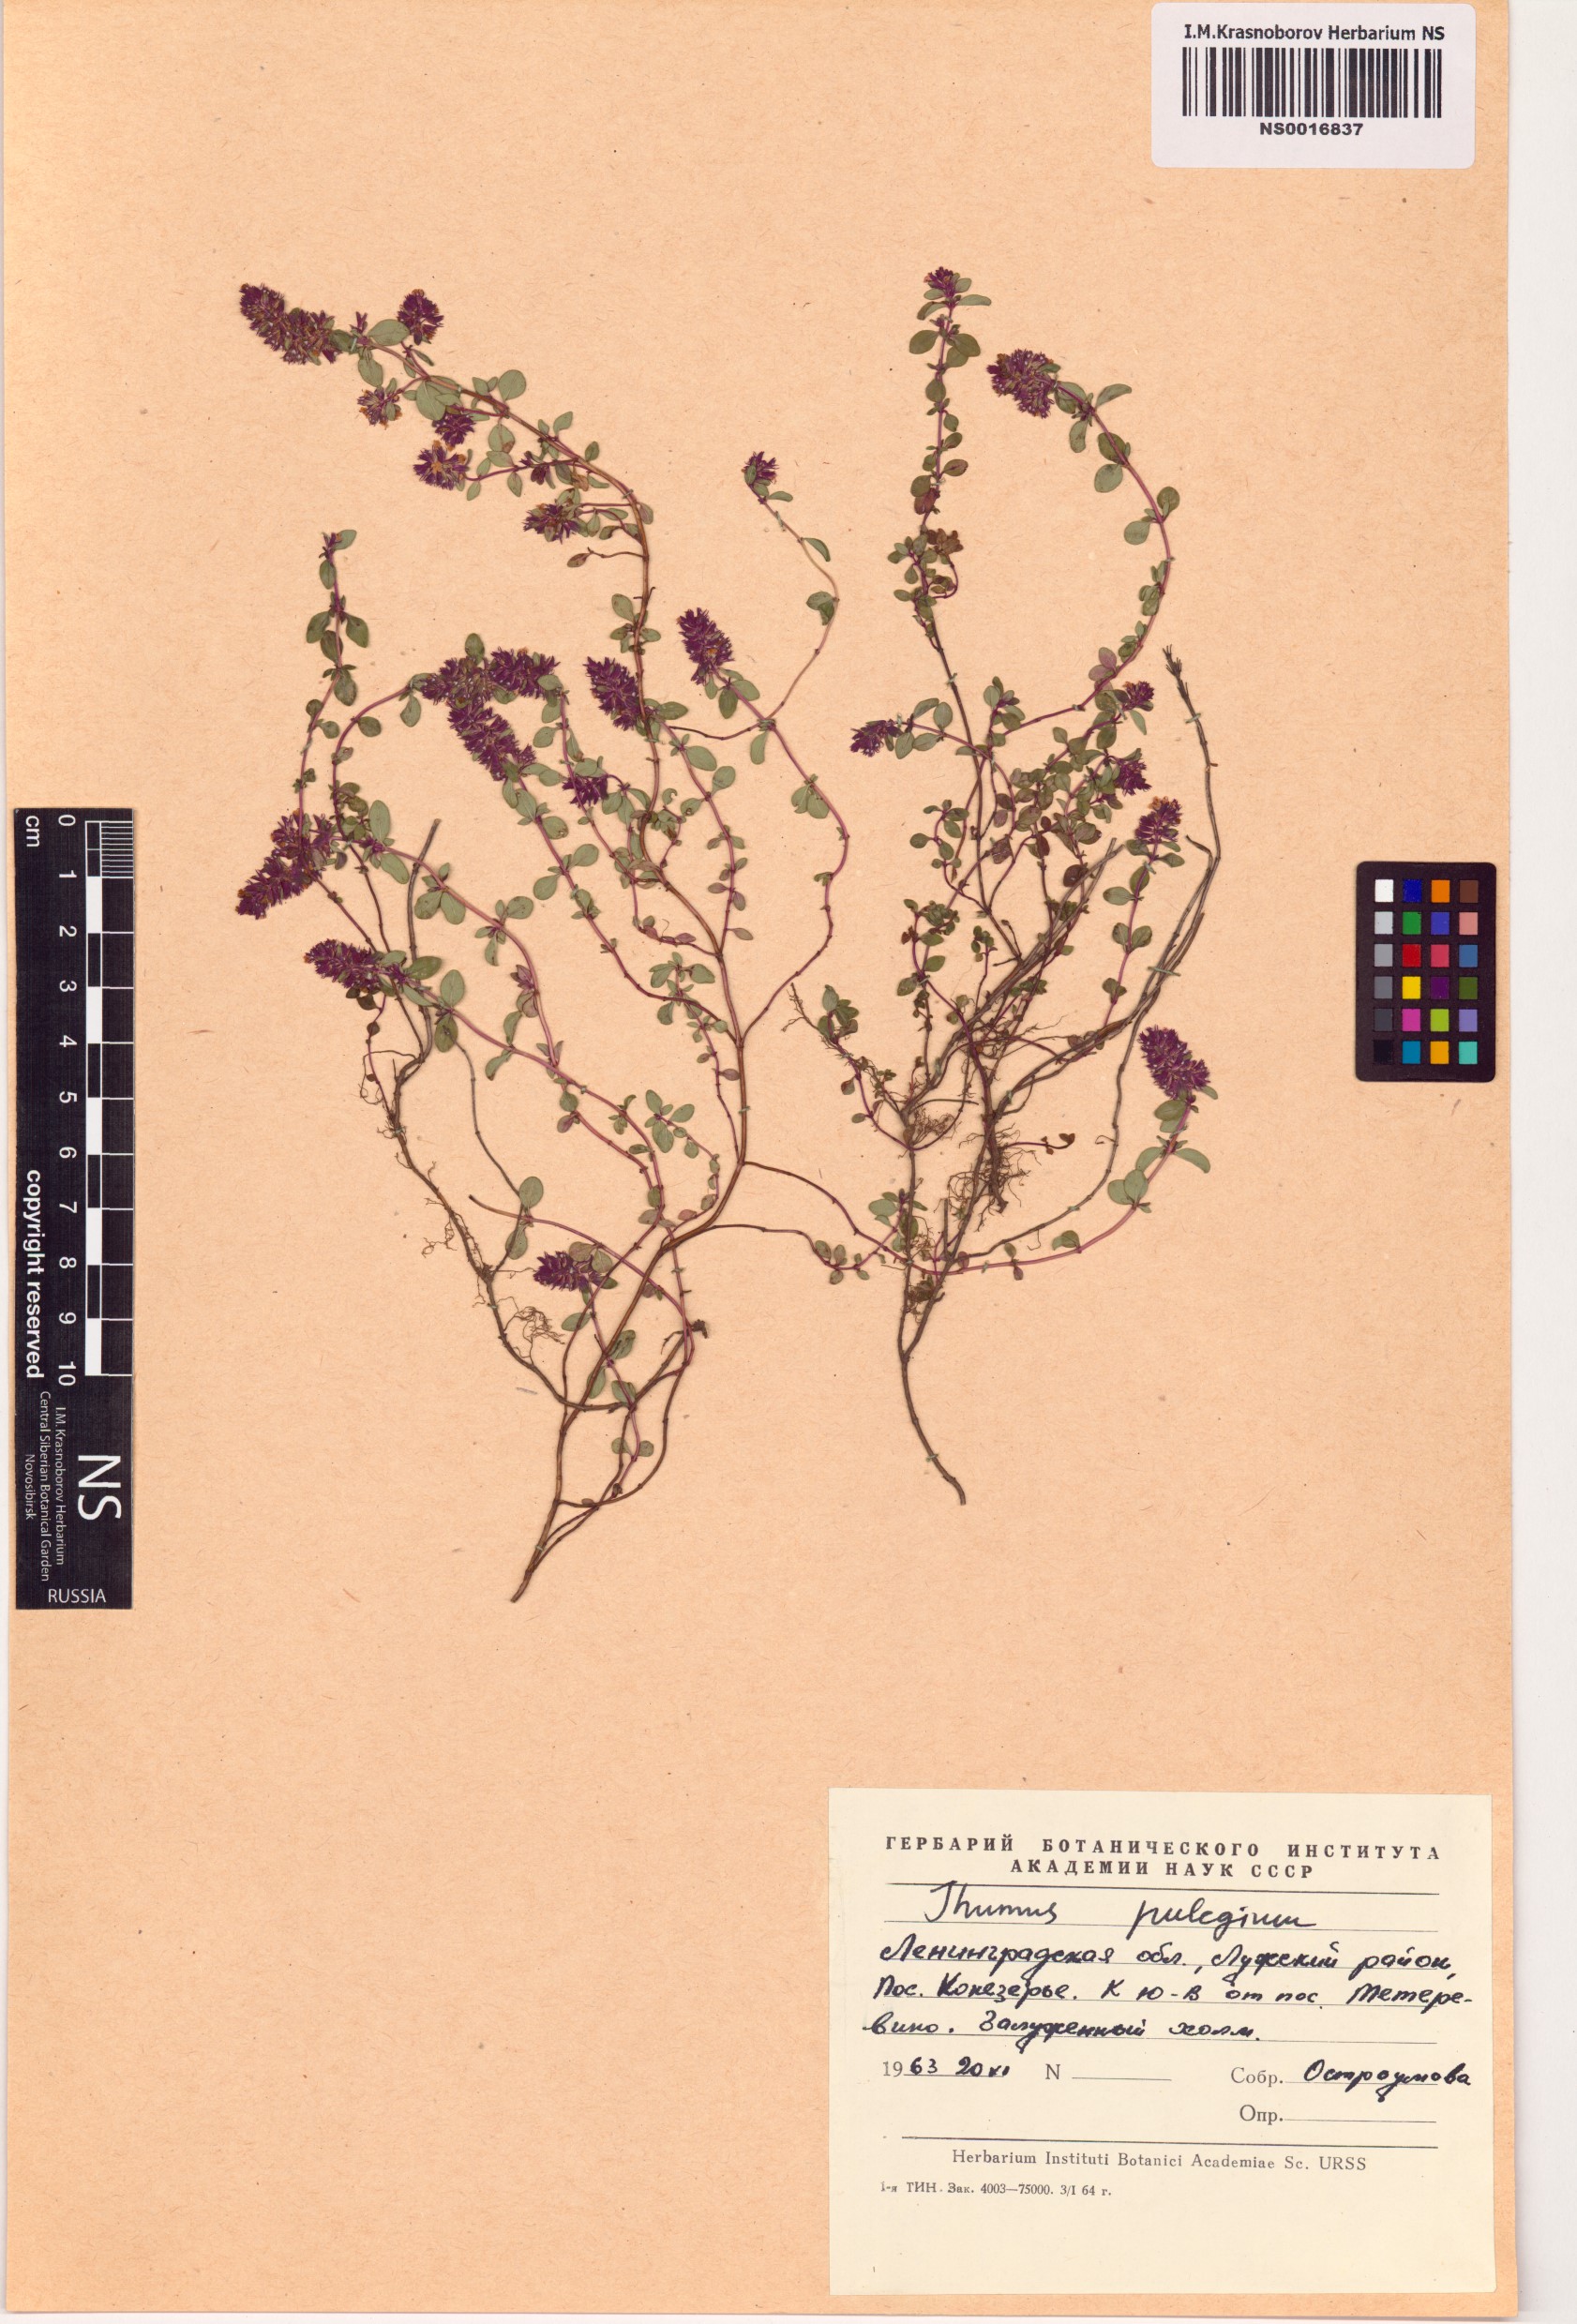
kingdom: Plantae
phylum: Tracheophyta
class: Magnoliopsida
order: Lamiales
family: Lamiaceae
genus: Thymus
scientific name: Thymus pulegioides
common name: Large thyme
